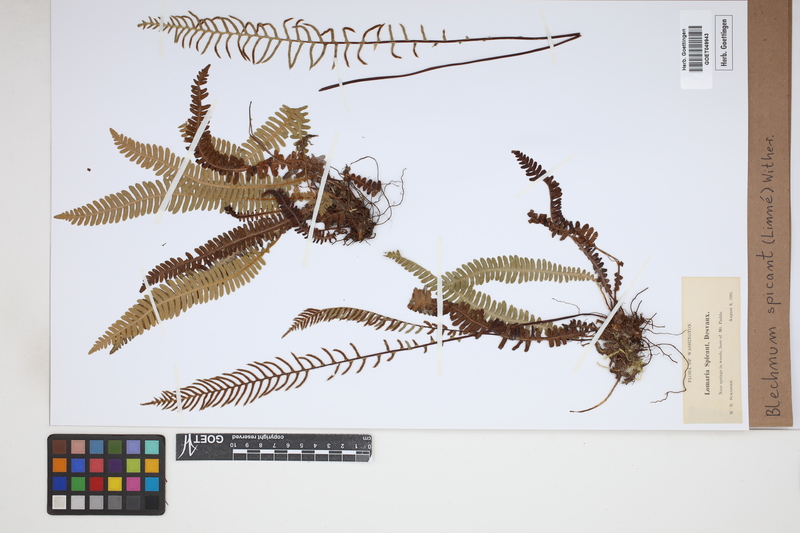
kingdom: Plantae
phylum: Tracheophyta
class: Polypodiopsida
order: Polypodiales
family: Blechnaceae
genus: Struthiopteris
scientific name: Struthiopteris spicant
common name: Deer fern
